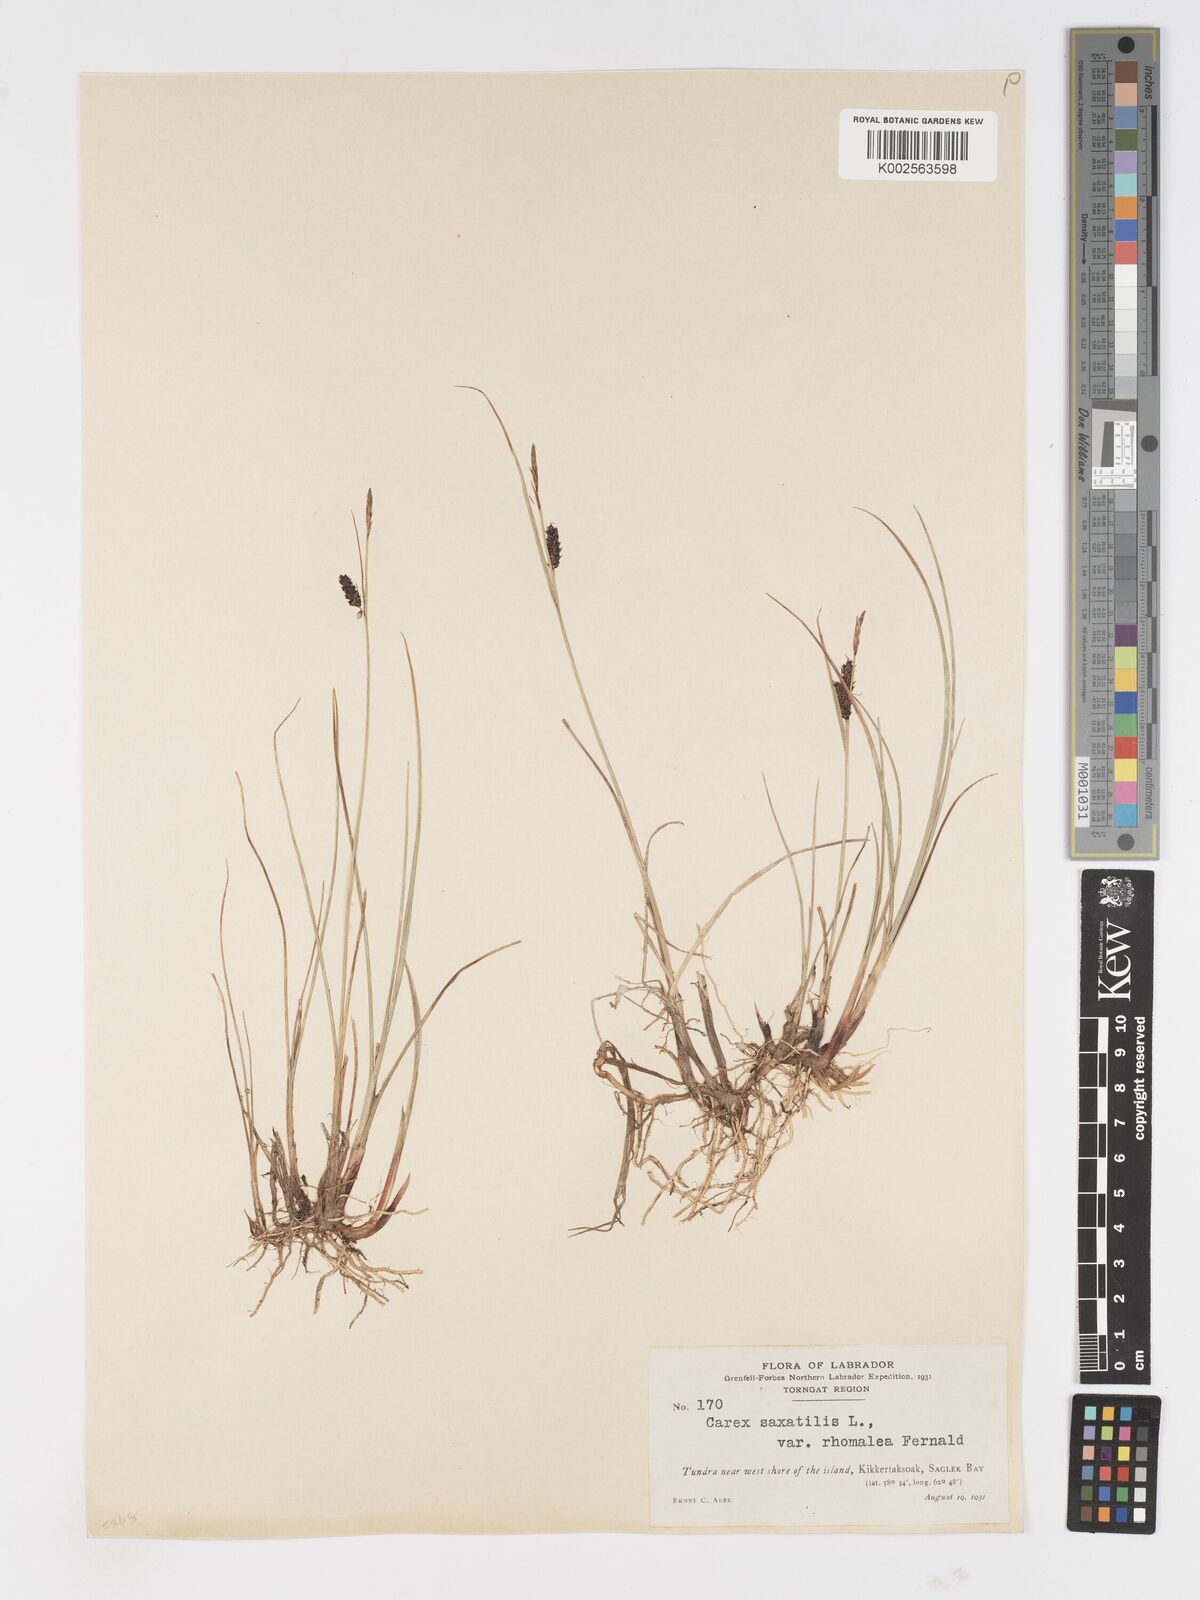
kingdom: Plantae
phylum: Tracheophyta
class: Liliopsida
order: Poales
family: Cyperaceae
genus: Carex
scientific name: Carex miliaris
